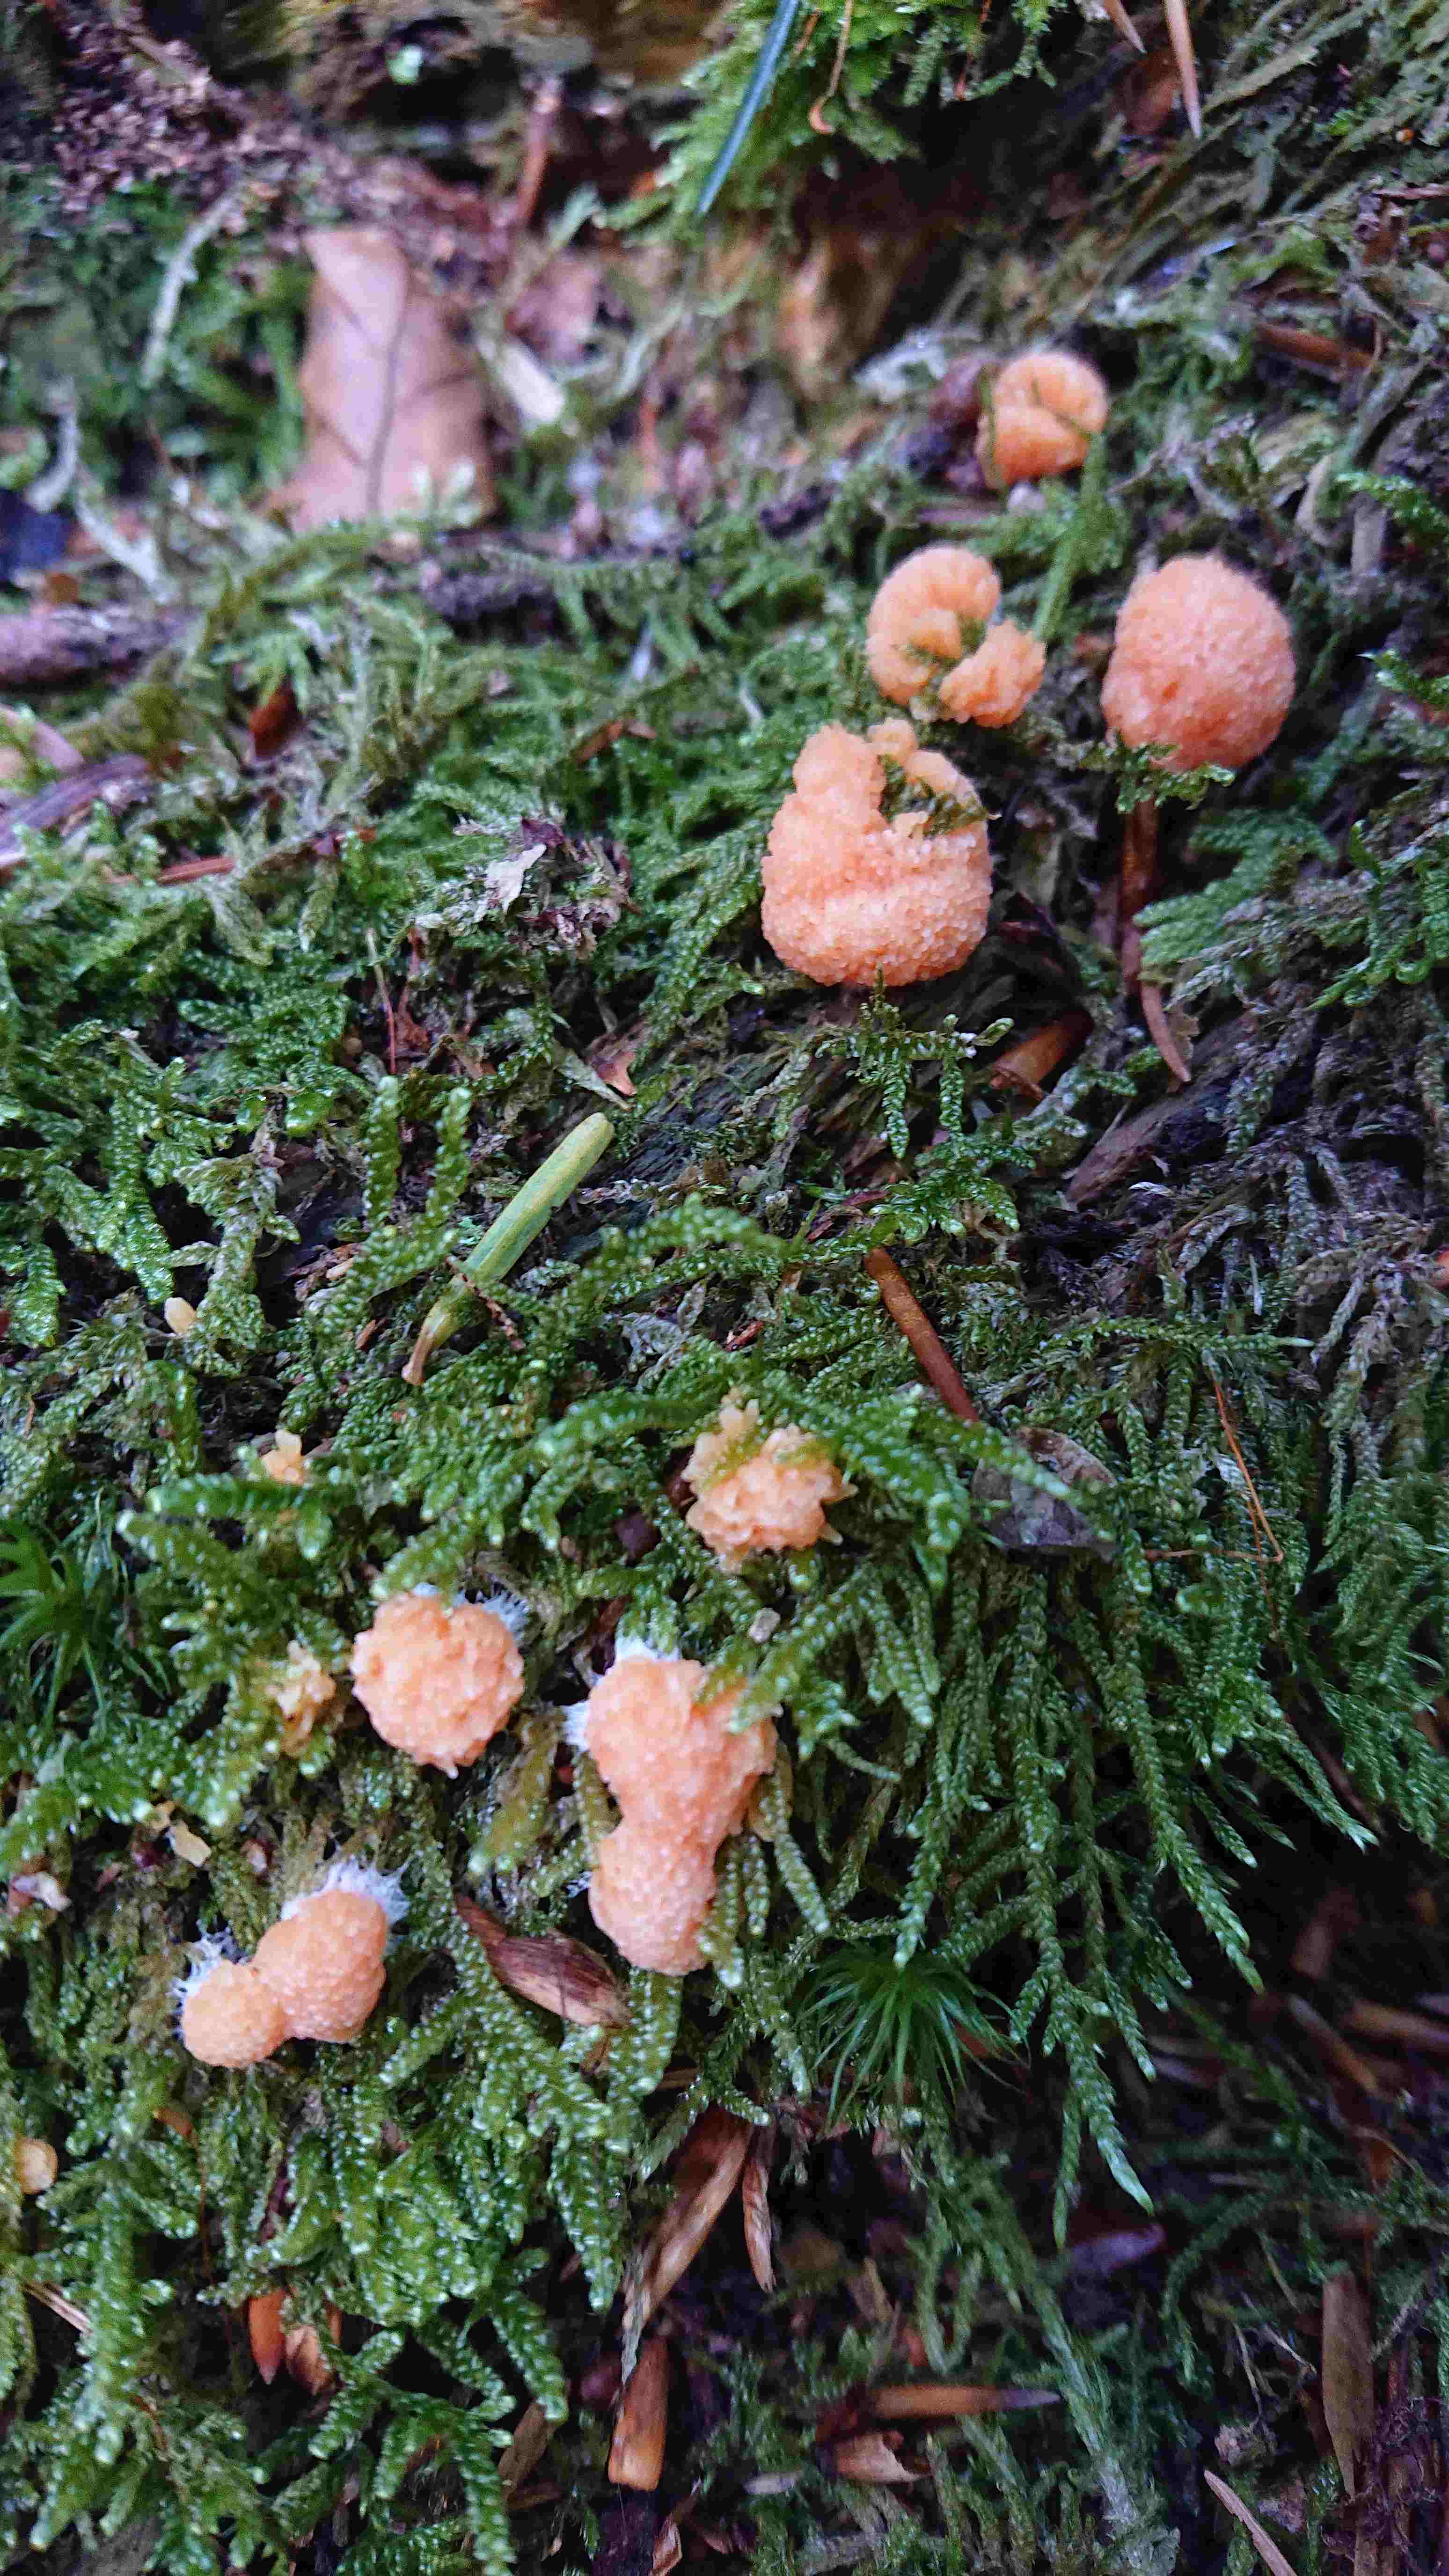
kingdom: Protozoa
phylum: Mycetozoa
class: Myxomycetes
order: Cribrariales
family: Tubiferaceae
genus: Tubifera
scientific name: Tubifera ferruginosa
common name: kanel-støvrør
